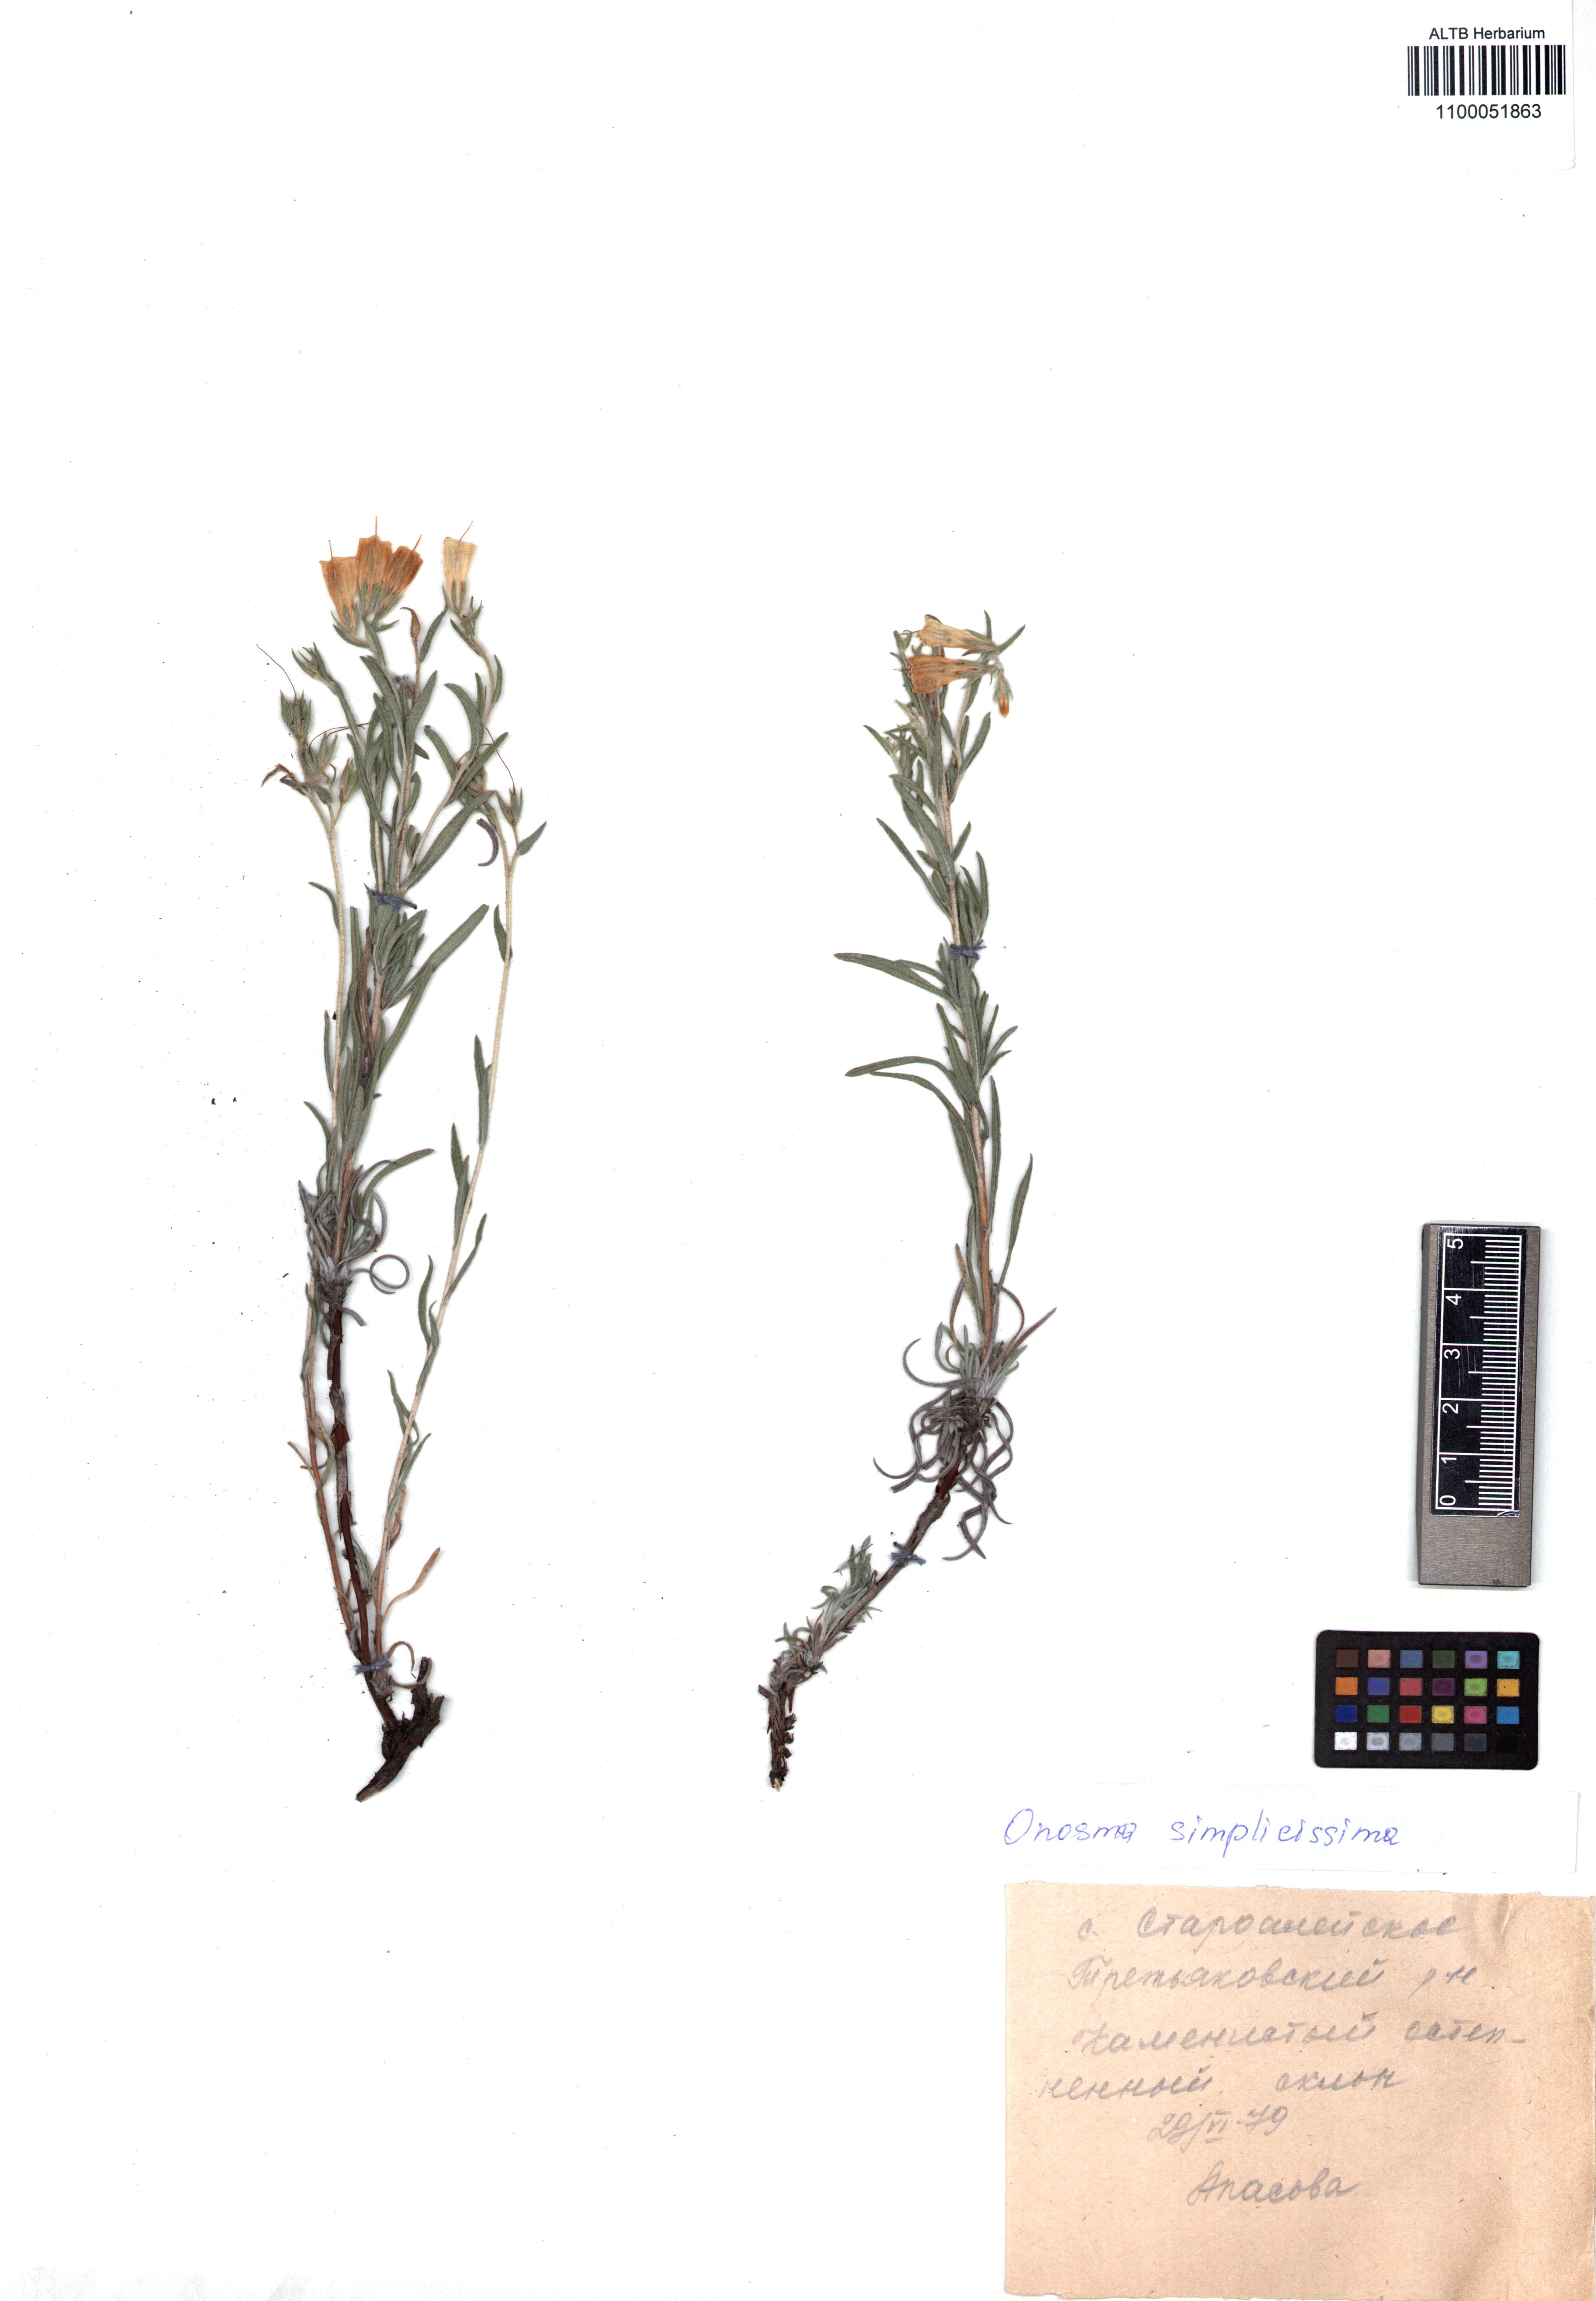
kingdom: Plantae
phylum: Tracheophyta
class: Magnoliopsida
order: Boraginales
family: Boraginaceae
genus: Onosma
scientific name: Onosma simplicissima
